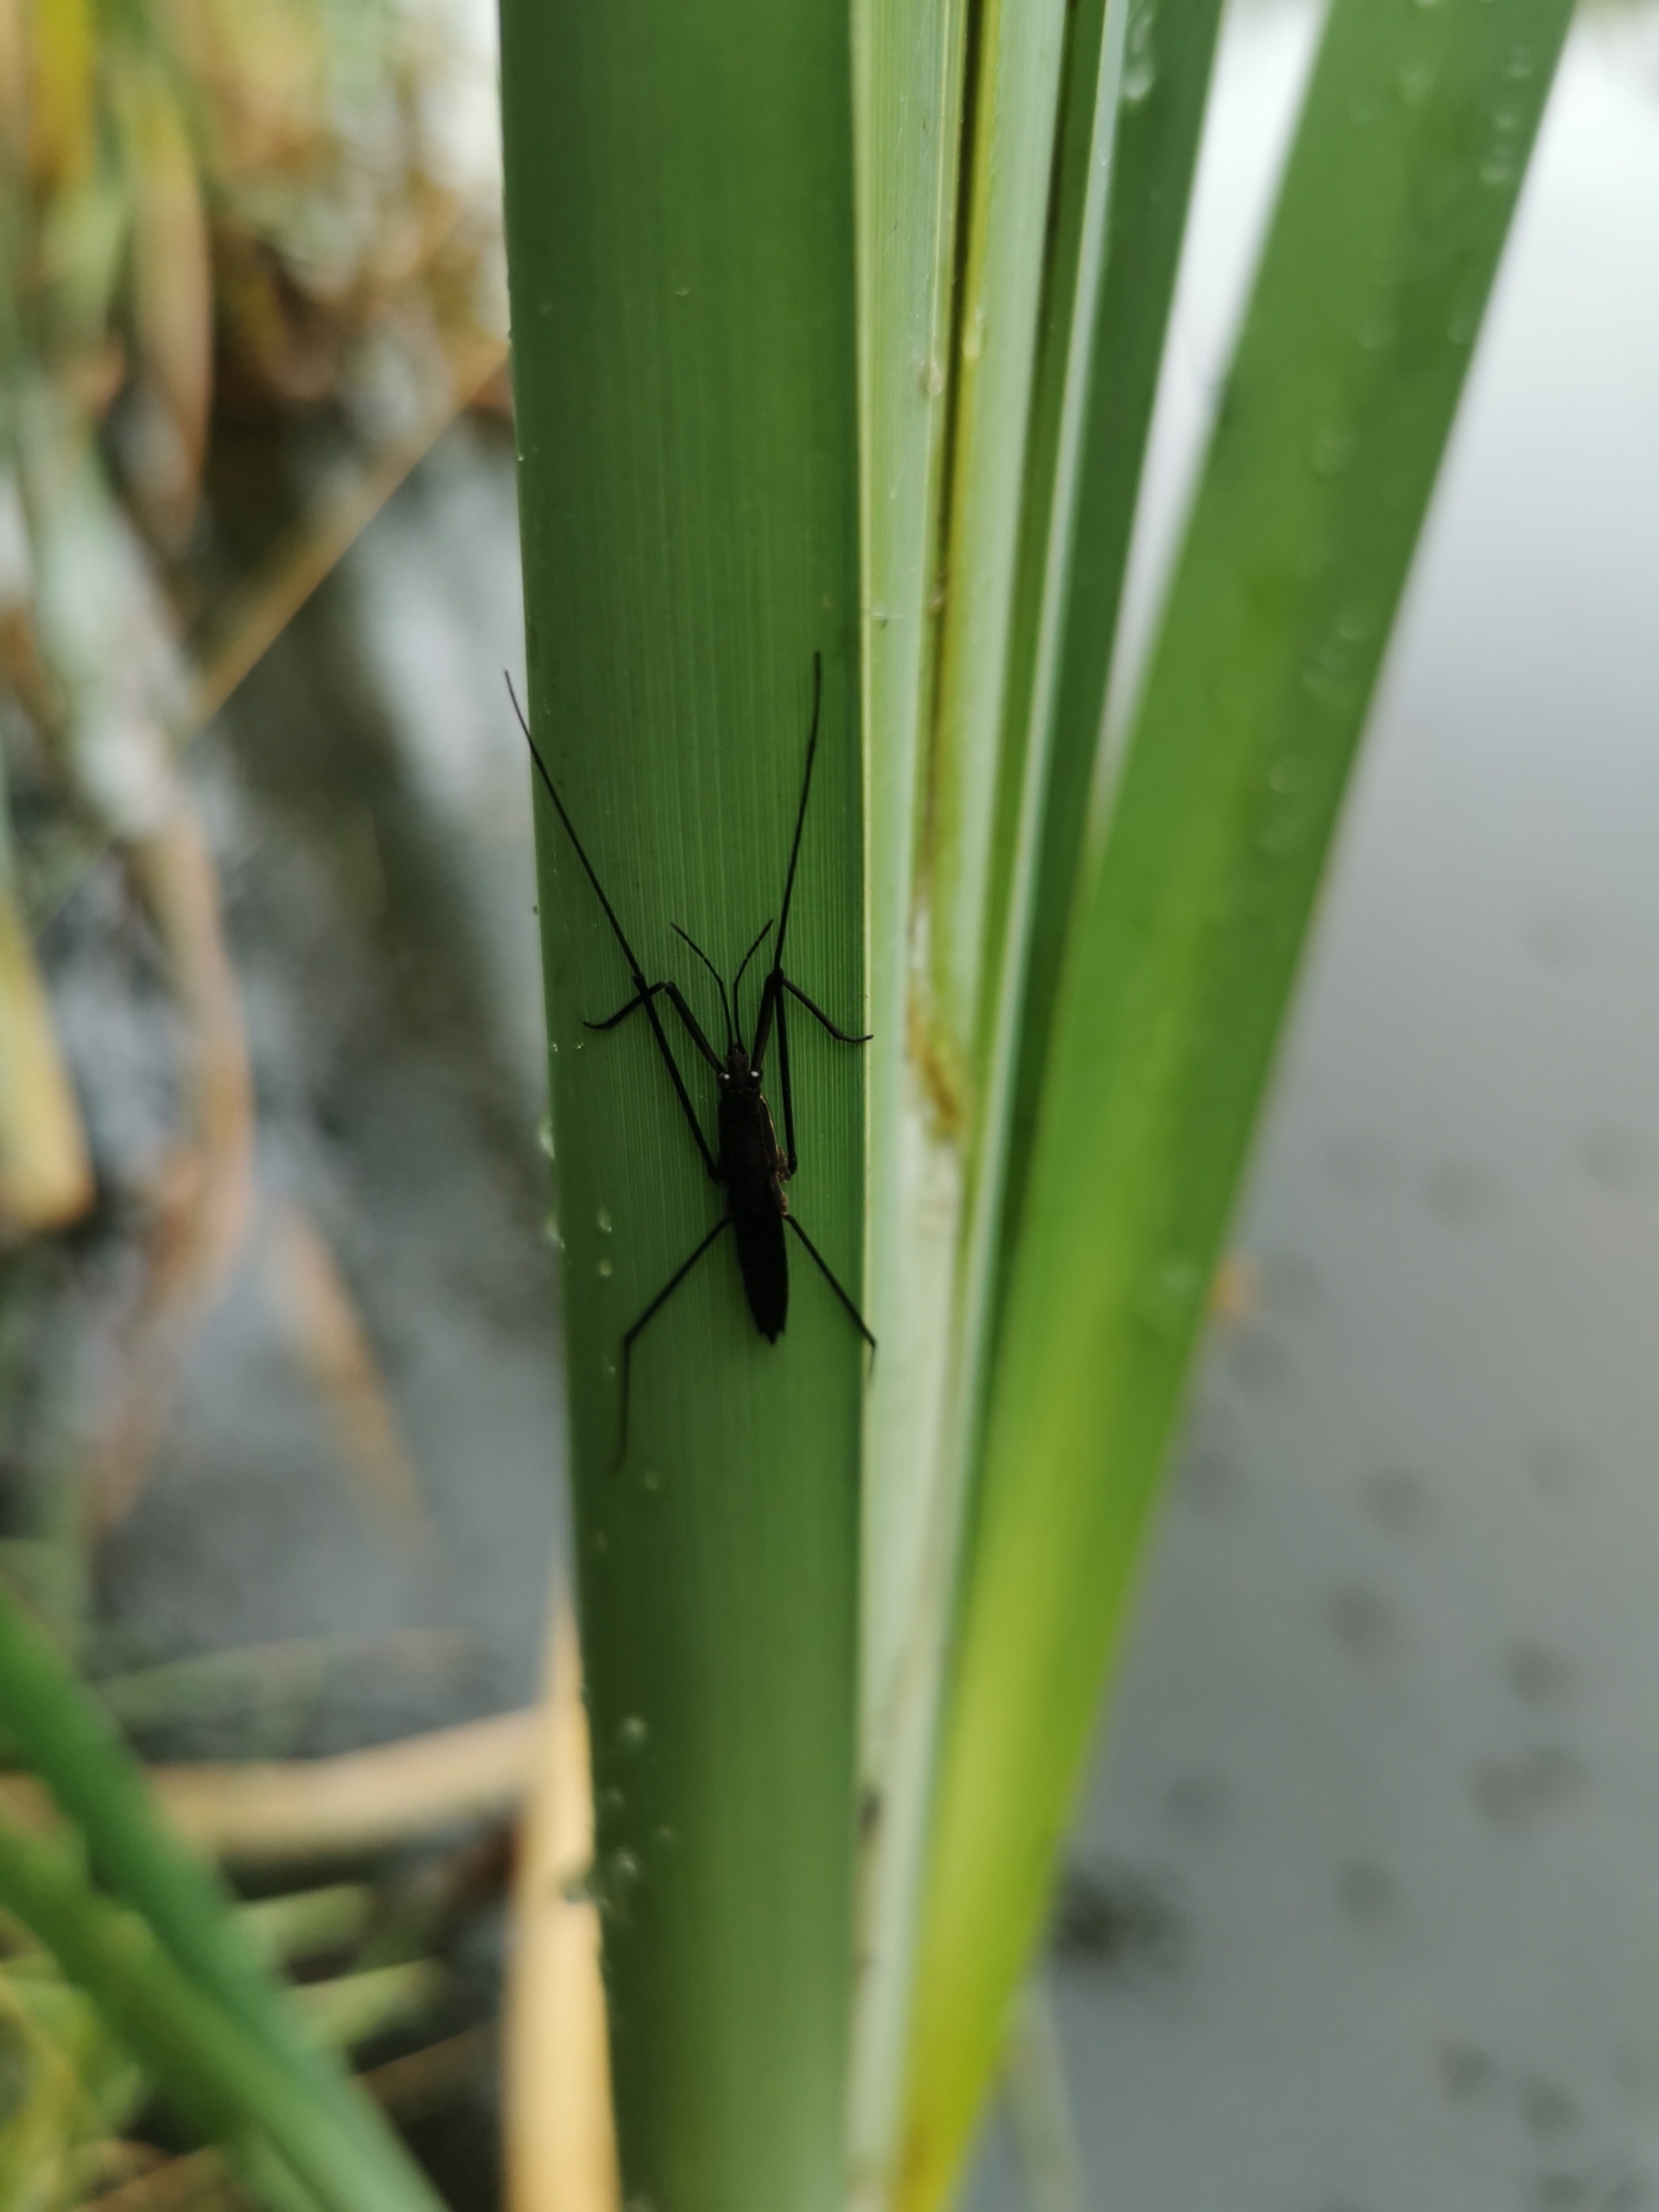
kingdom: Animalia
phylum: Arthropoda
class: Insecta
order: Hemiptera
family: Gerridae
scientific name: Gerridae
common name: Skøjteløbere
